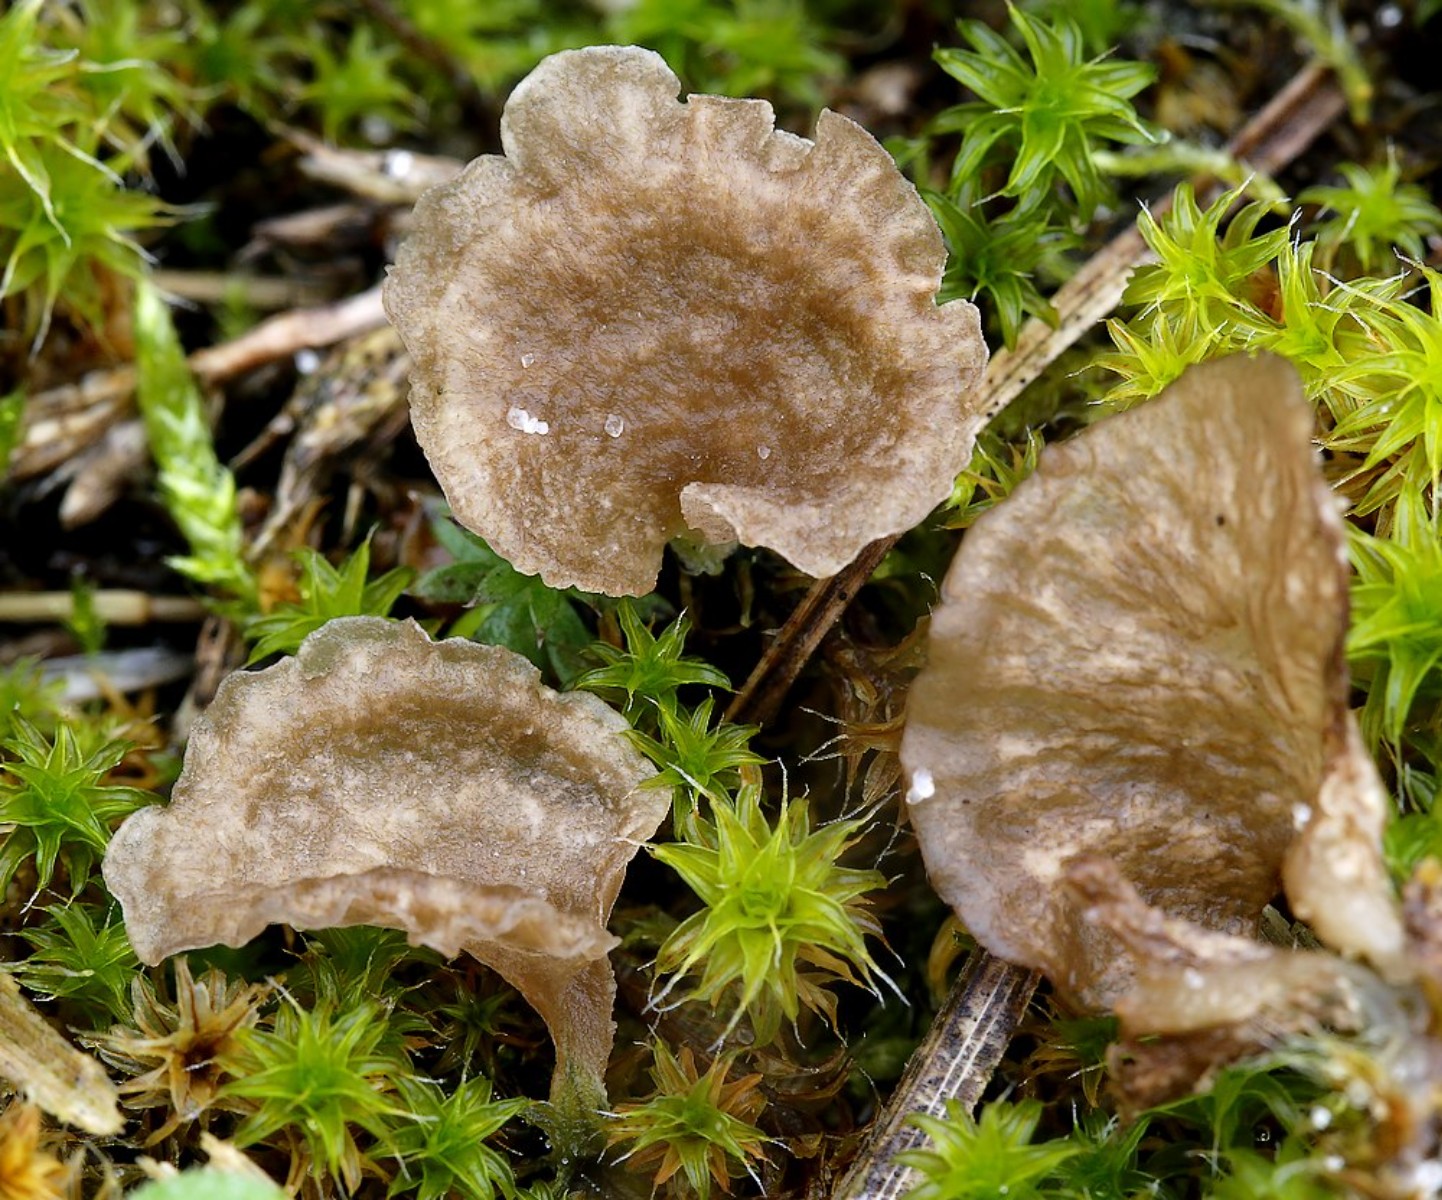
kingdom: Fungi
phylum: Basidiomycota
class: Agaricomycetes
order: Agaricales
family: Hygrophoraceae
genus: Arrhenia
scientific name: Arrhenia spathulata
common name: skæv fontænehat
